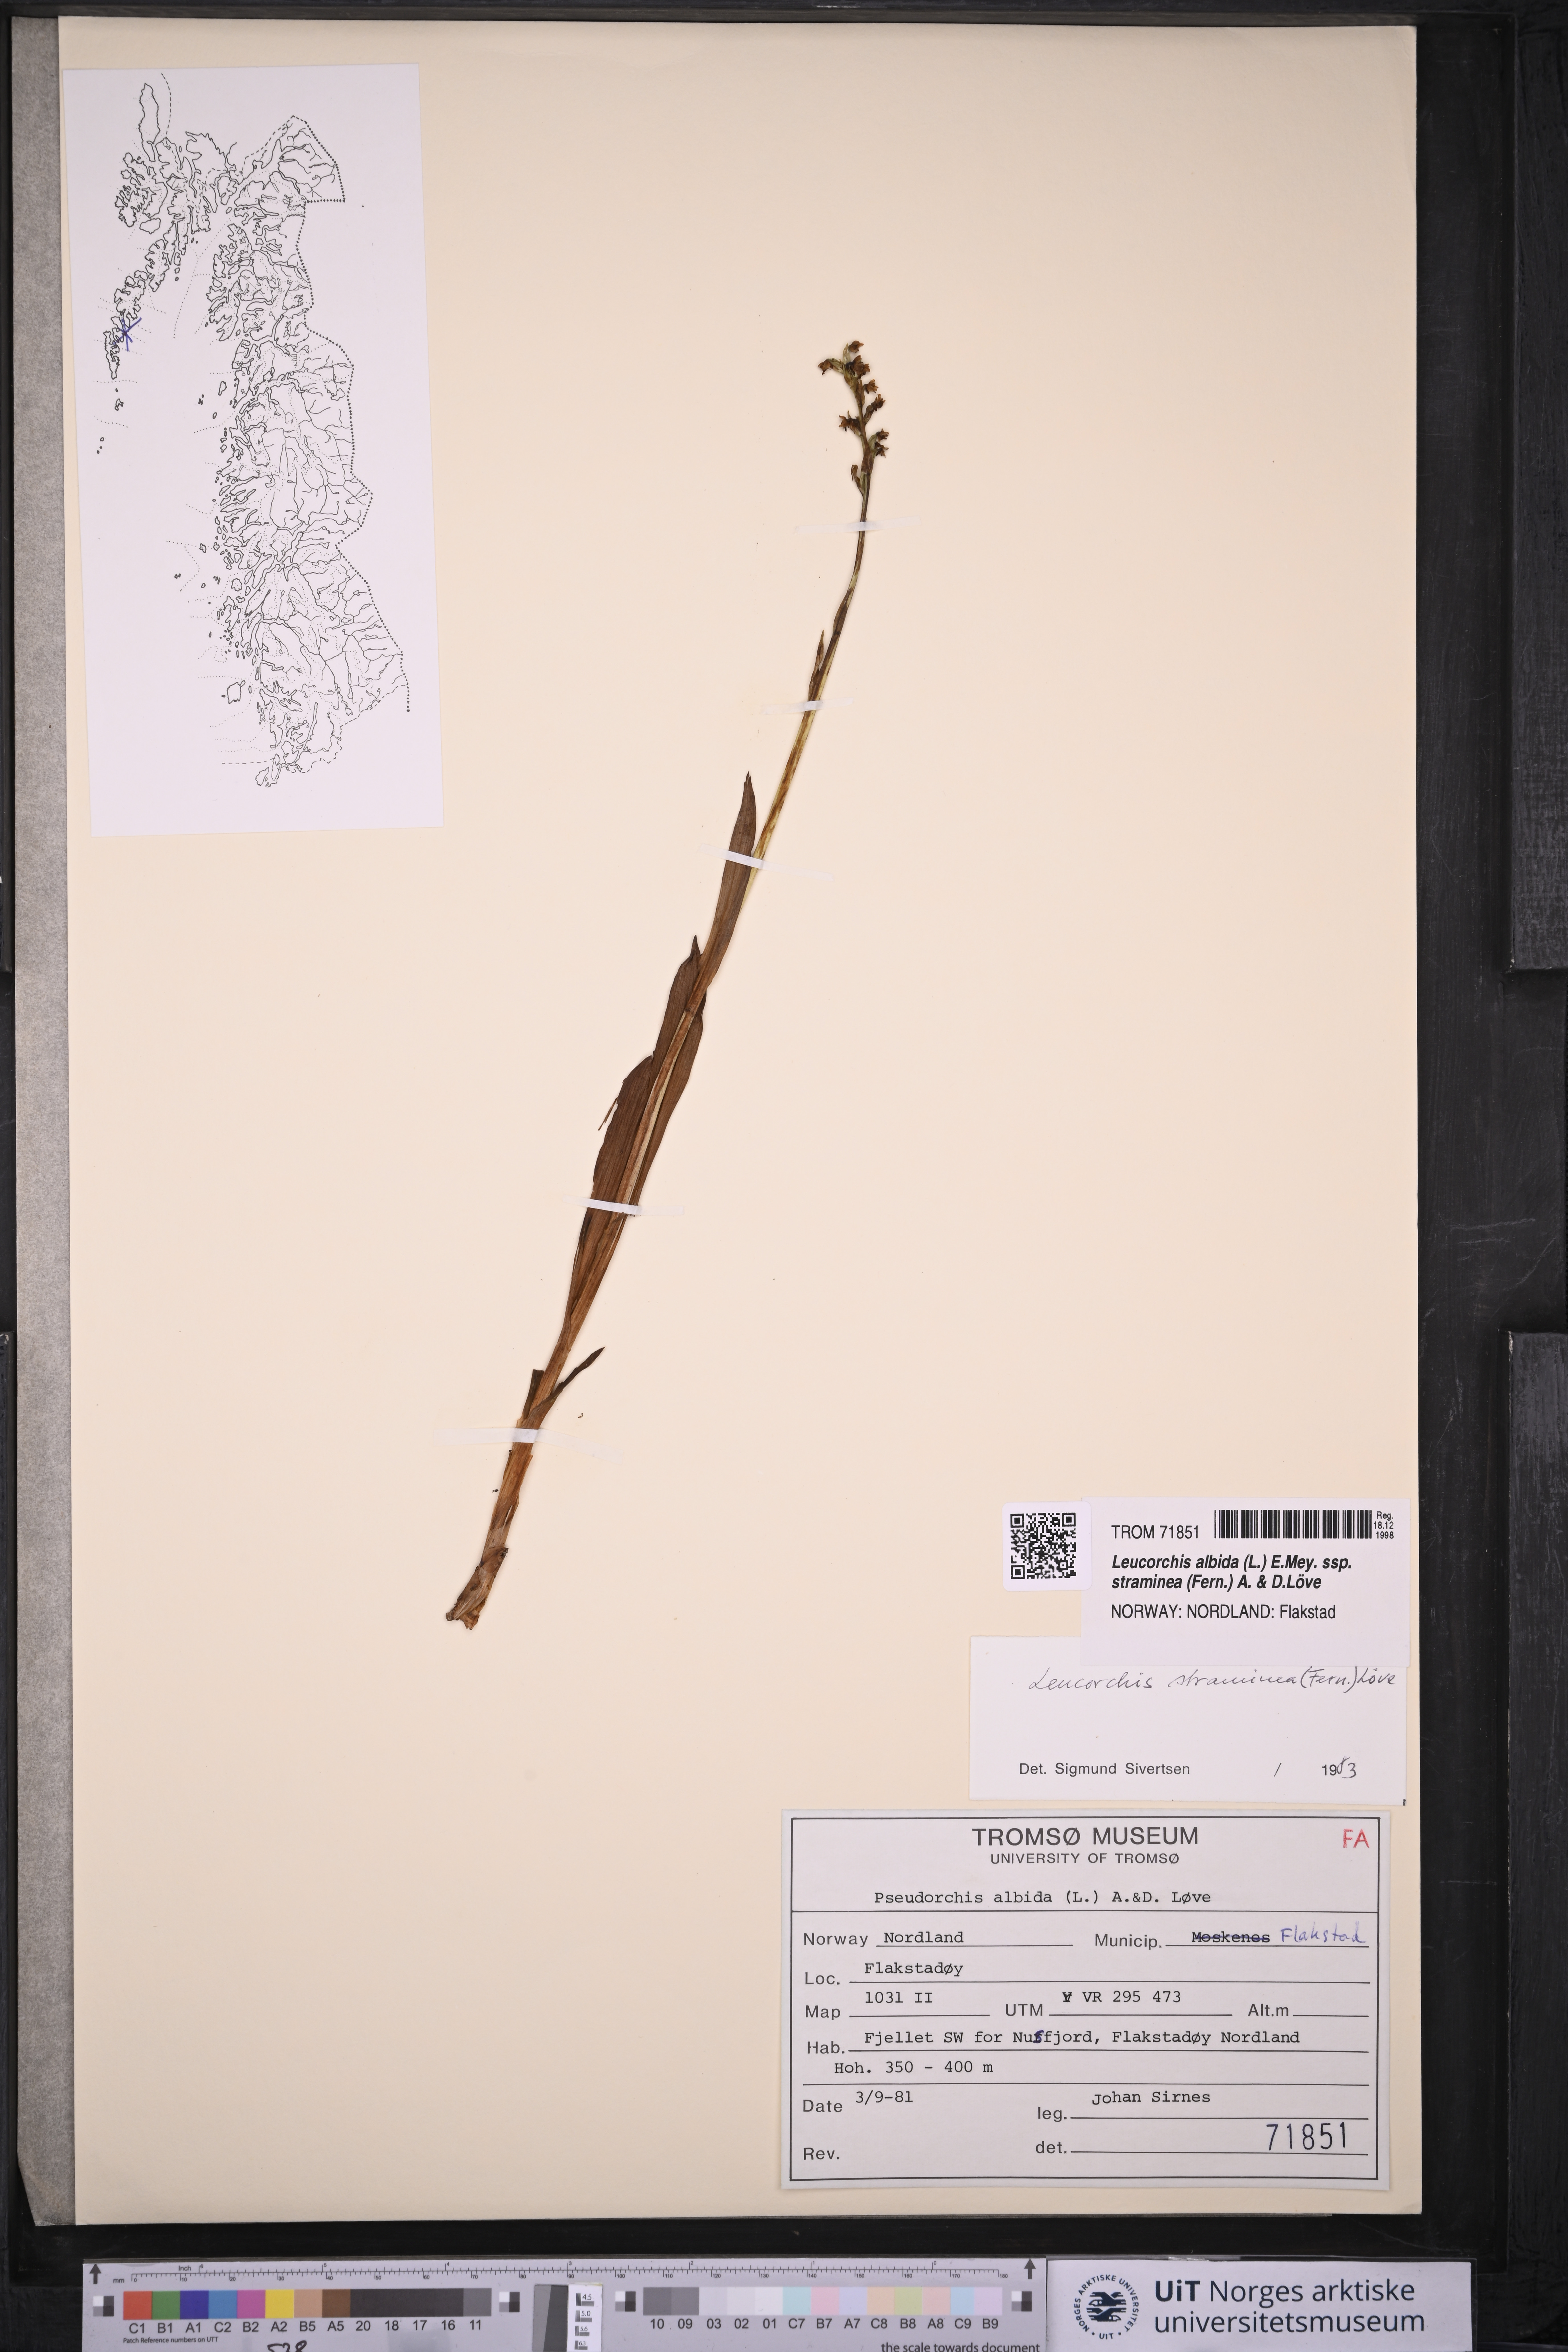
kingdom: Plantae
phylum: Tracheophyta
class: Liliopsida
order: Asparagales
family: Orchidaceae
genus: Pseudorchis
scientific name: Pseudorchis straminea
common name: Vanilla-scented bog orchid
